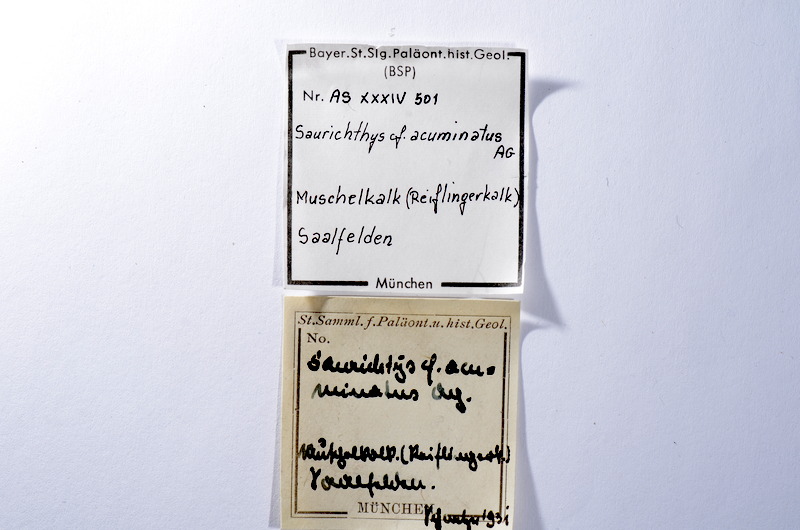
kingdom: Animalia
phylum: Chordata
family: Saurichthyidae
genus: Saurichthys
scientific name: Saurichthys acuminatus
